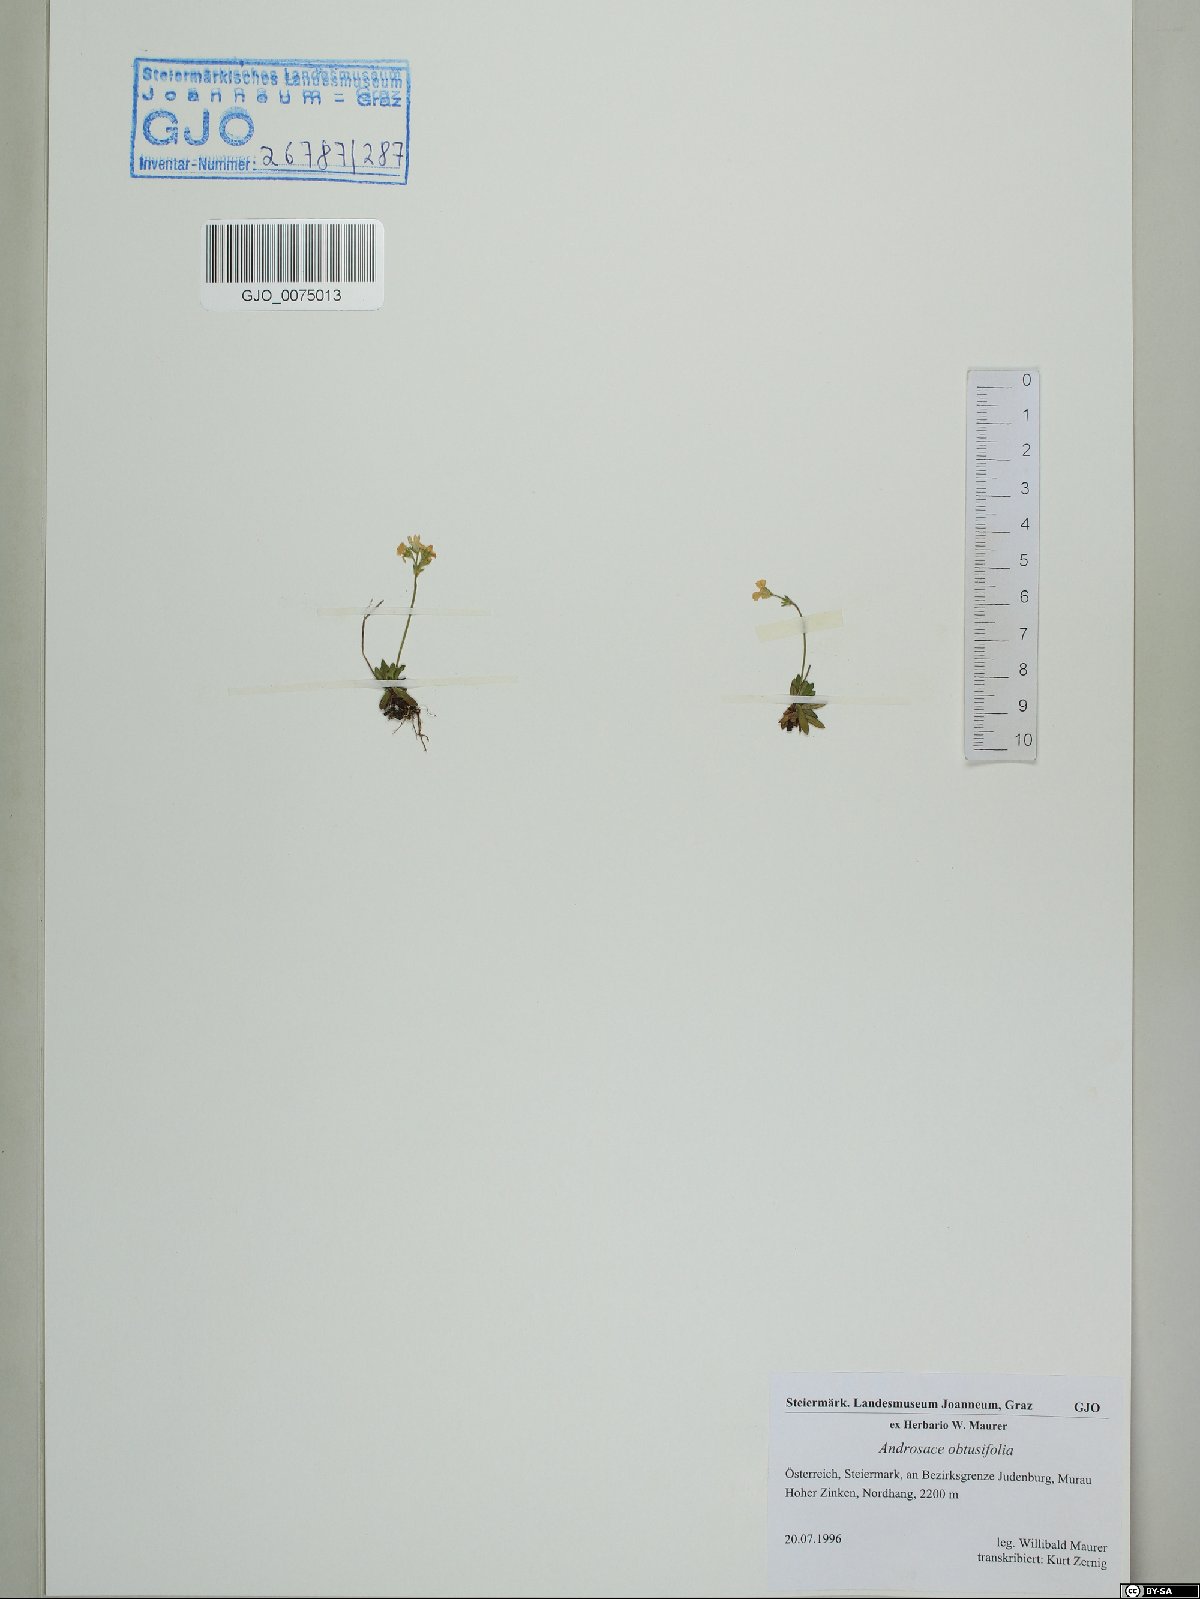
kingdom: Plantae
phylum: Tracheophyta
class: Magnoliopsida
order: Ericales
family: Primulaceae
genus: Androsace
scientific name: Androsace obtusifolia
